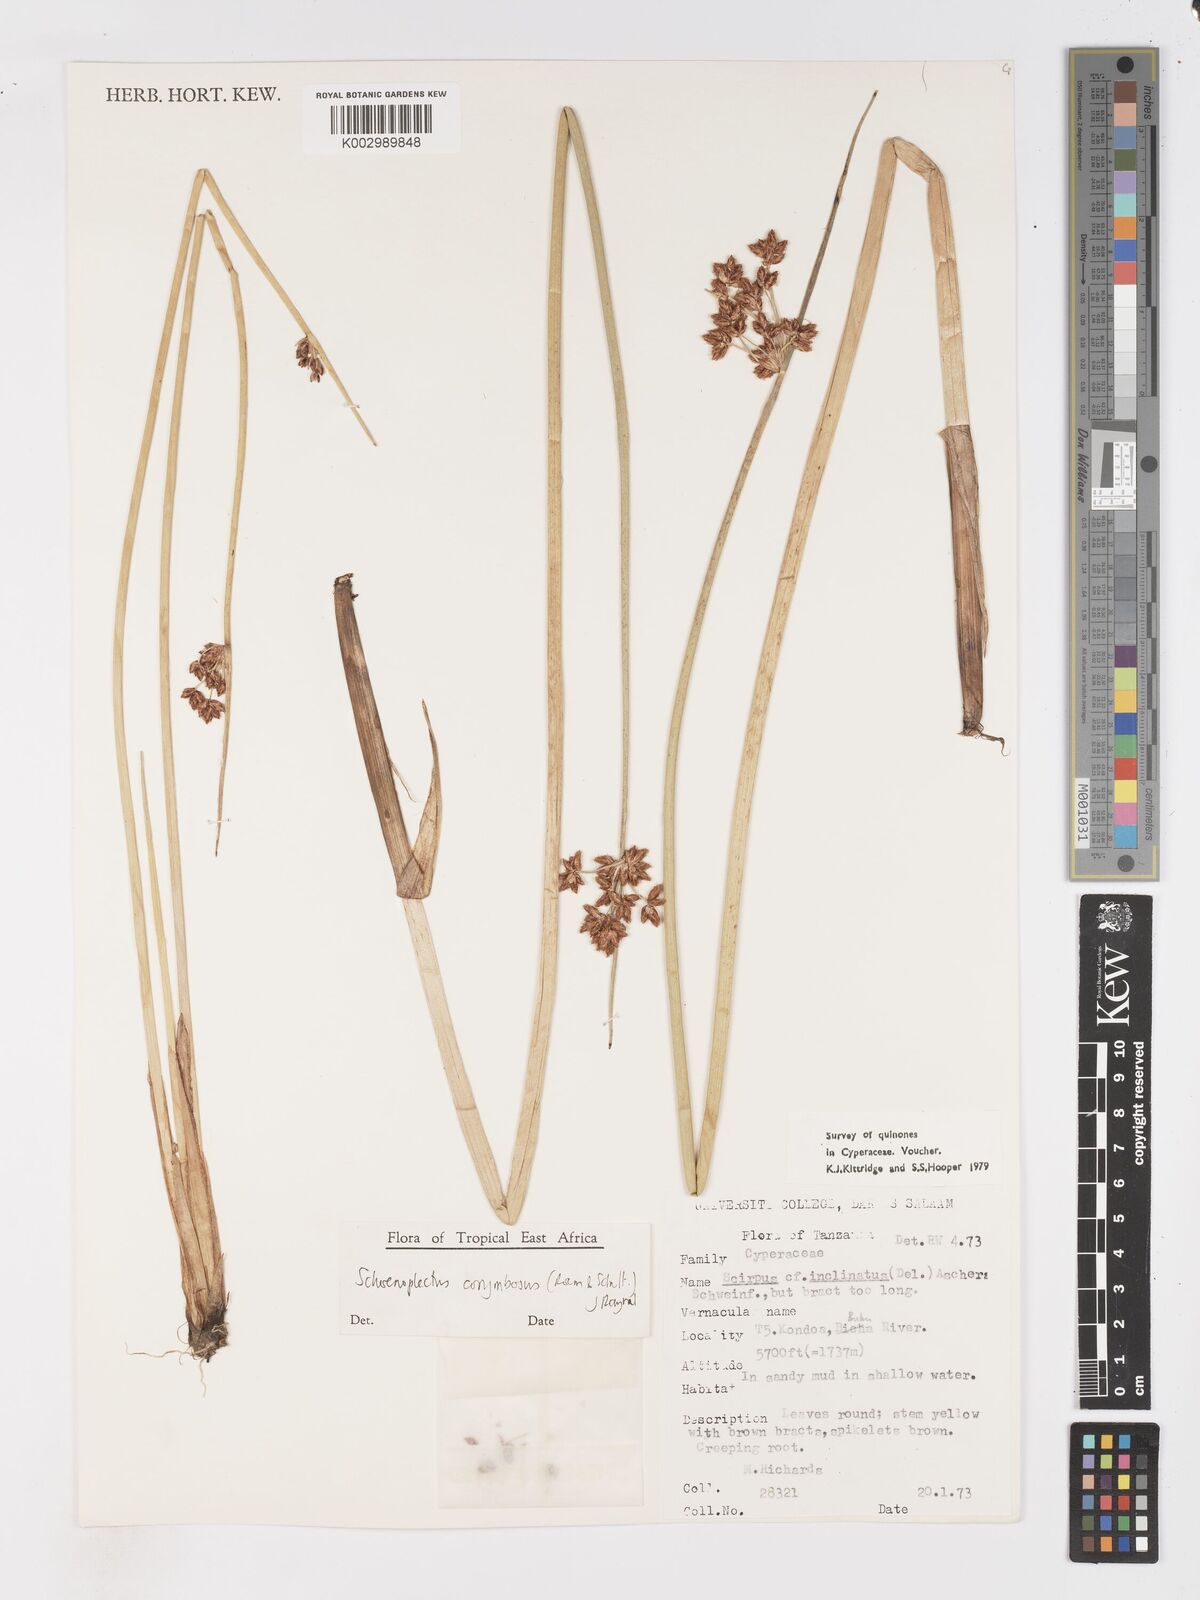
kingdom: Plantae
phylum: Tracheophyta
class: Liliopsida
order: Poales
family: Cyperaceae
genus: Schoenoplectiella
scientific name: Schoenoplectiella corymbosa
